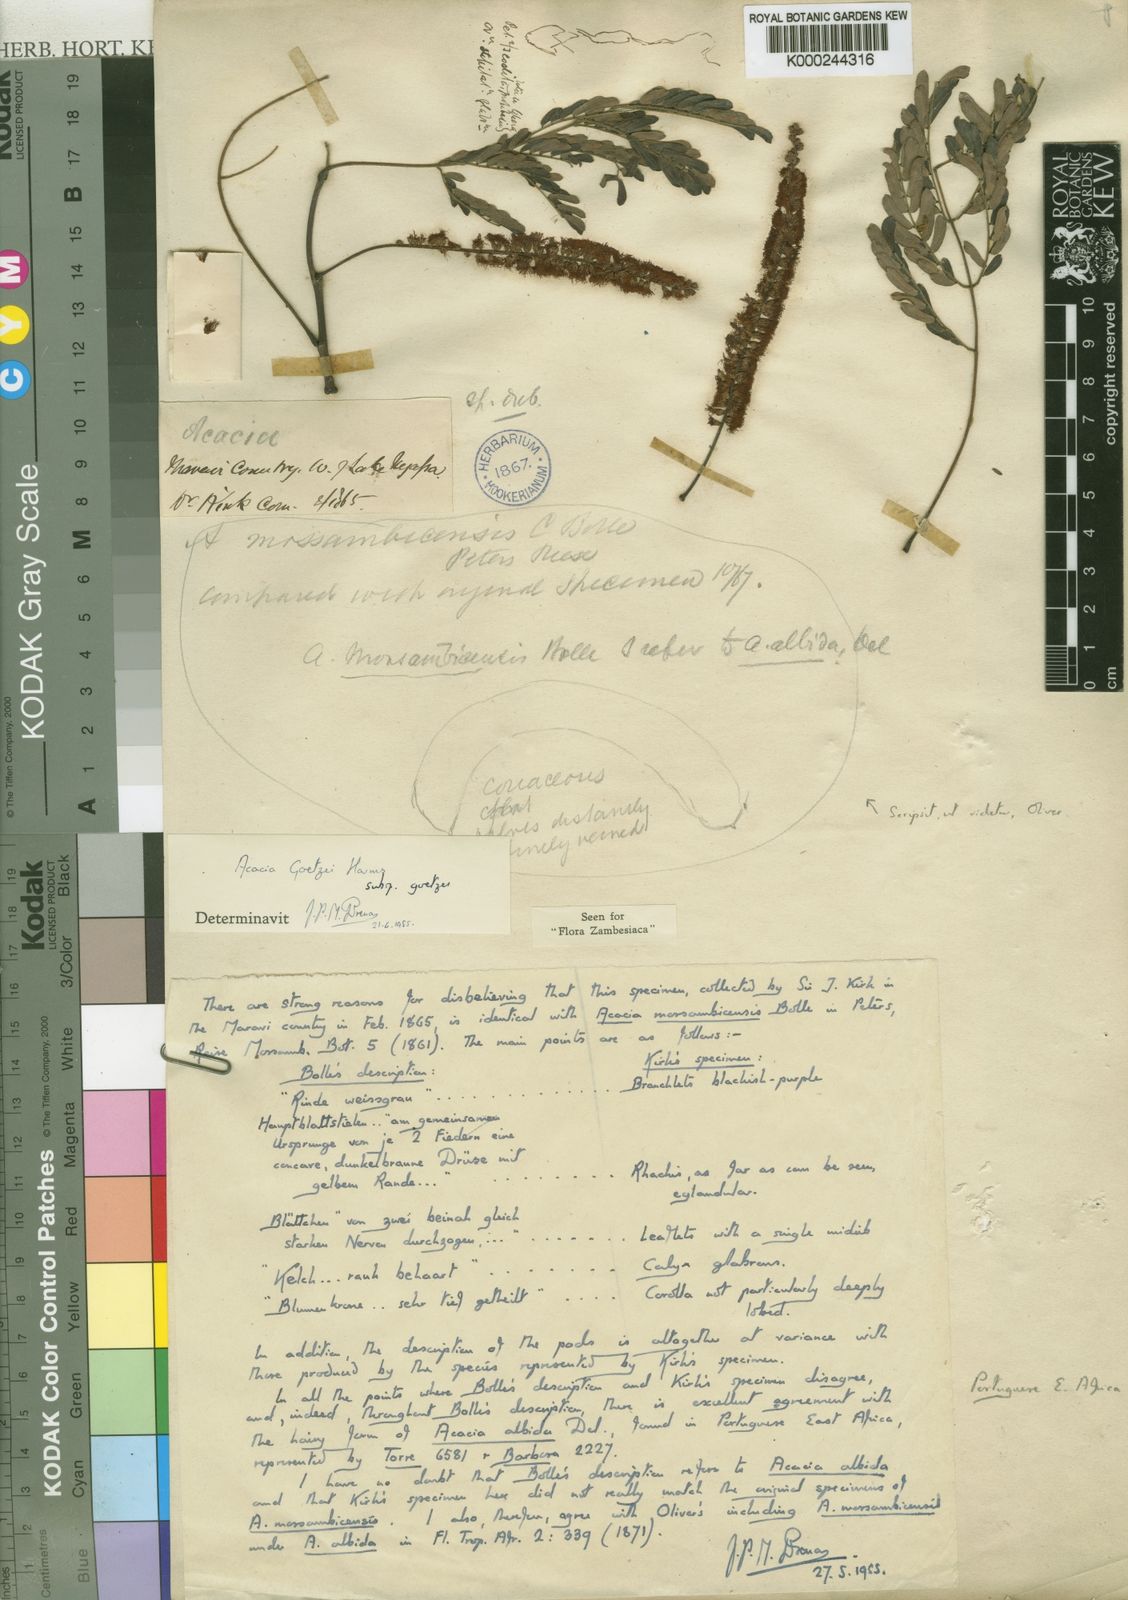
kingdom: Plantae
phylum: Tracheophyta
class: Magnoliopsida
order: Fabales
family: Fabaceae
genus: Senegalia
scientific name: Senegalia goetzei
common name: Purplepod acacia
